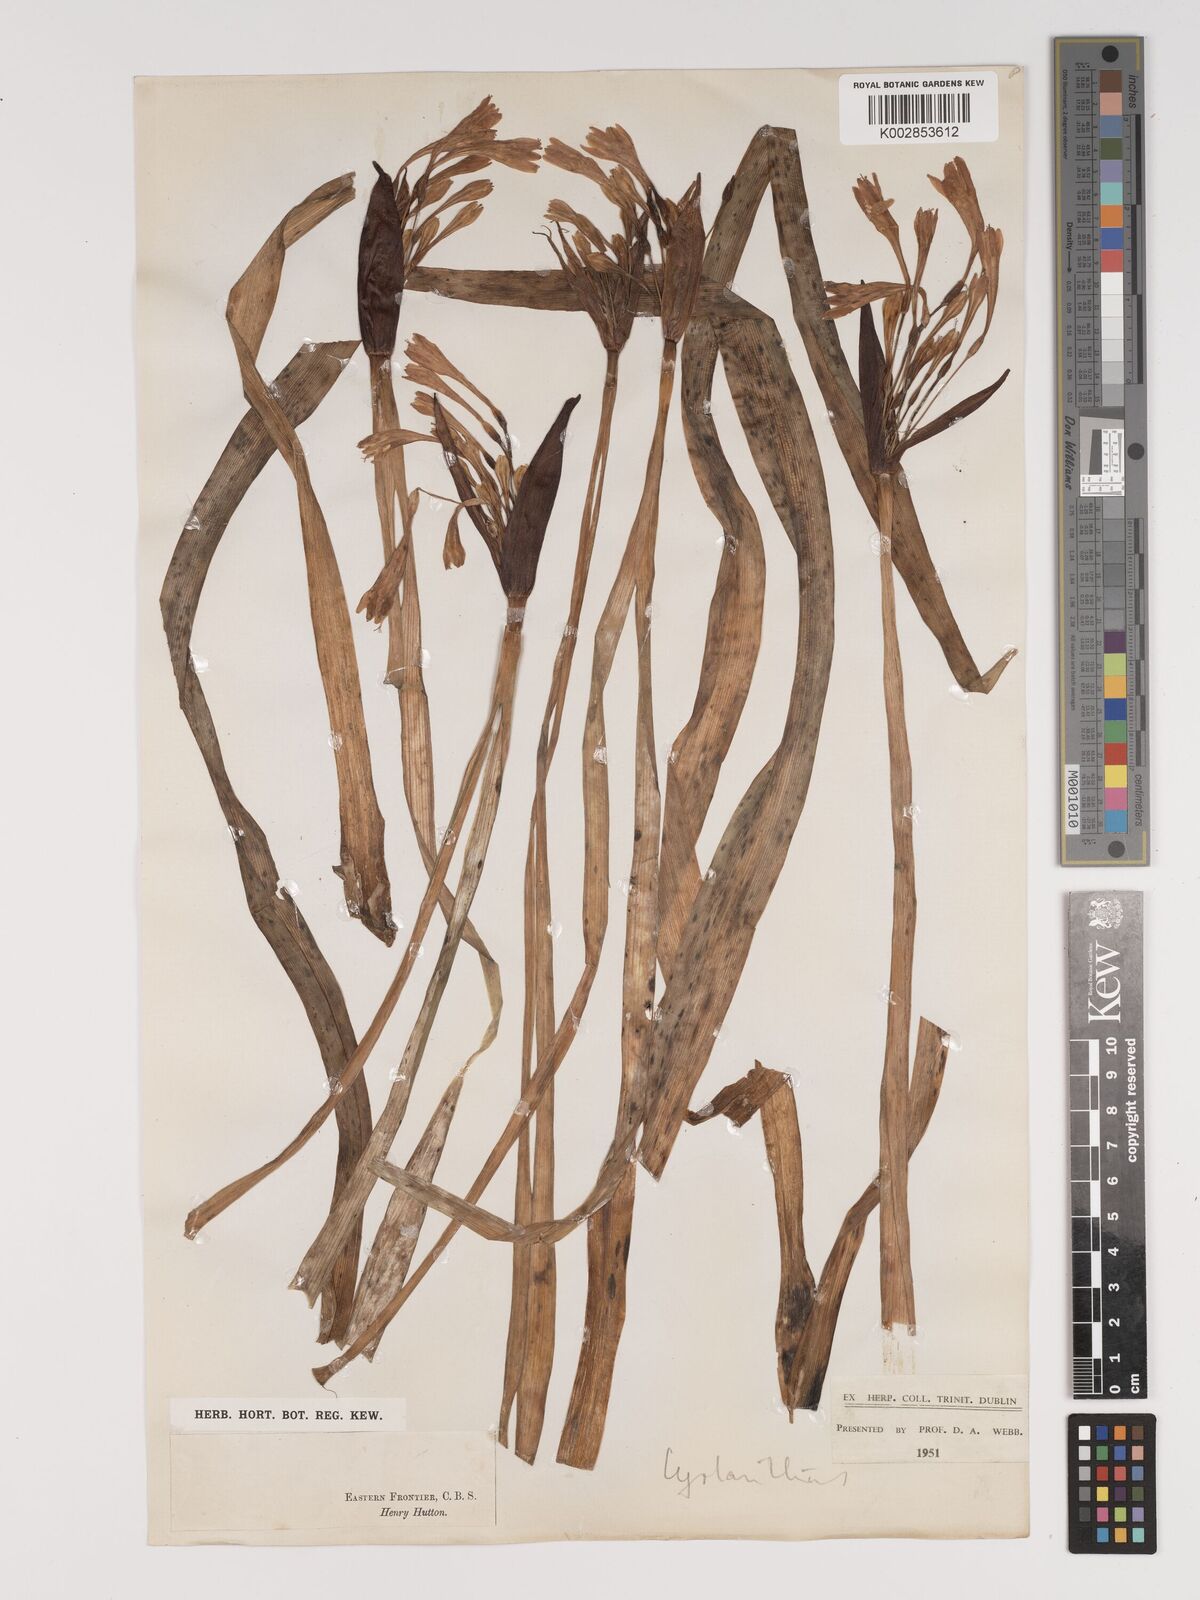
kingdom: Plantae
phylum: Tracheophyta
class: Liliopsida
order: Asparagales
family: Amaryllidaceae
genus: Cyrtanthus
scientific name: Cyrtanthus
